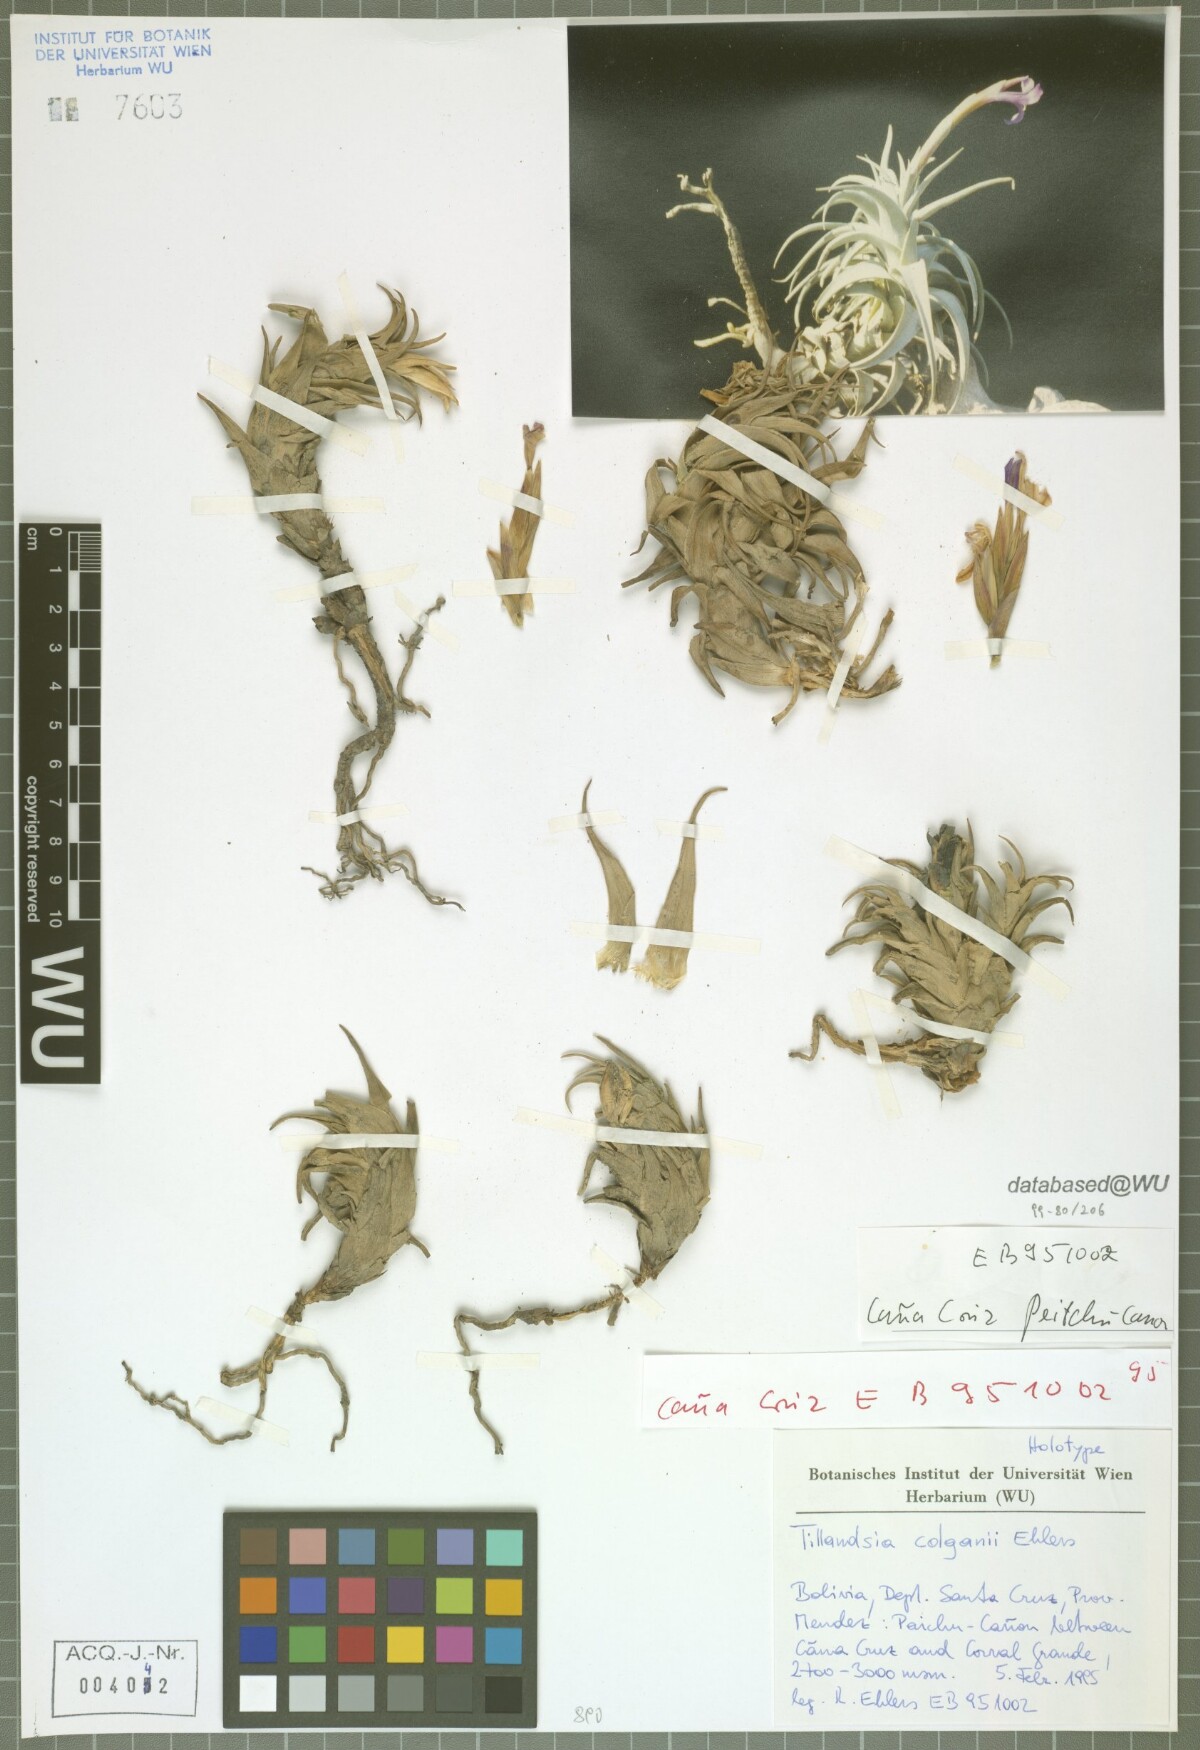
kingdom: Plantae
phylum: Tracheophyta
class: Liliopsida
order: Poales
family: Bromeliaceae
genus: Tillandsia
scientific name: Tillandsia colganii
